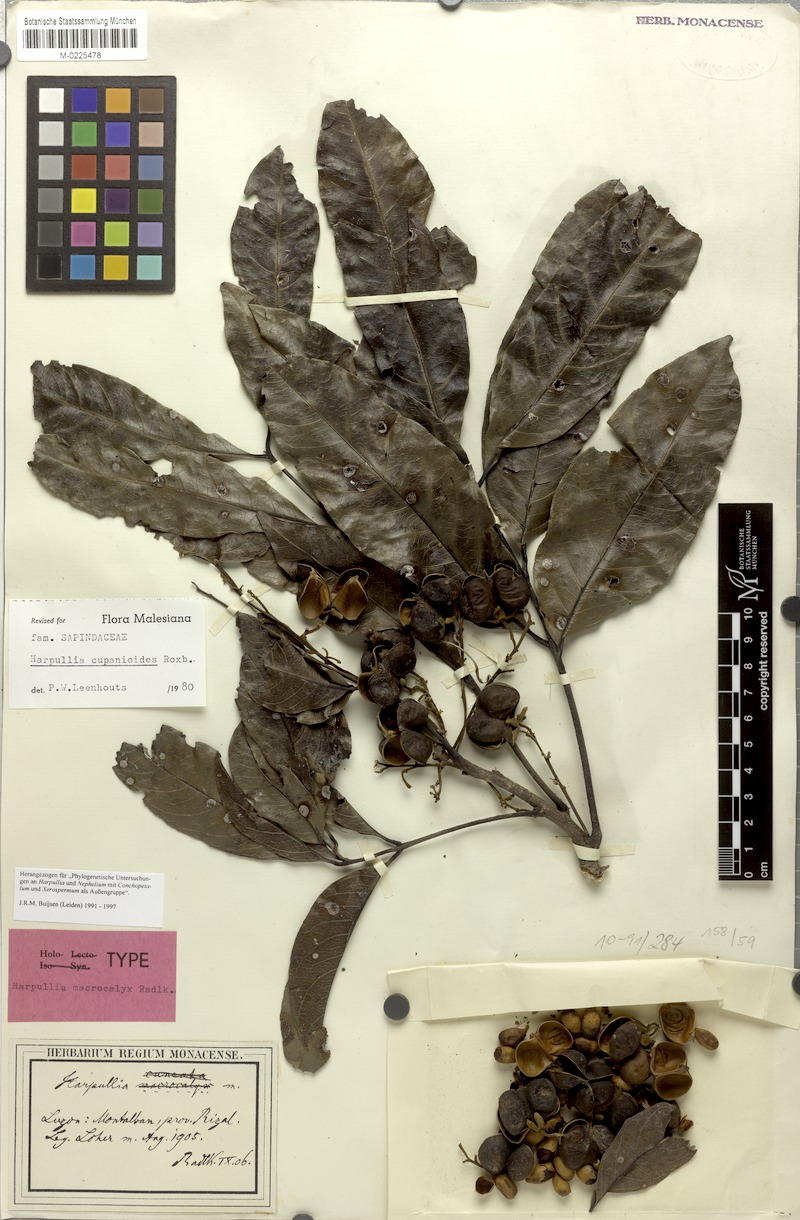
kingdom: Plantae
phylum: Tracheophyta
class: Magnoliopsida
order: Sapindales
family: Sapindaceae
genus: Harpullia
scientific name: Harpullia cupanioides
